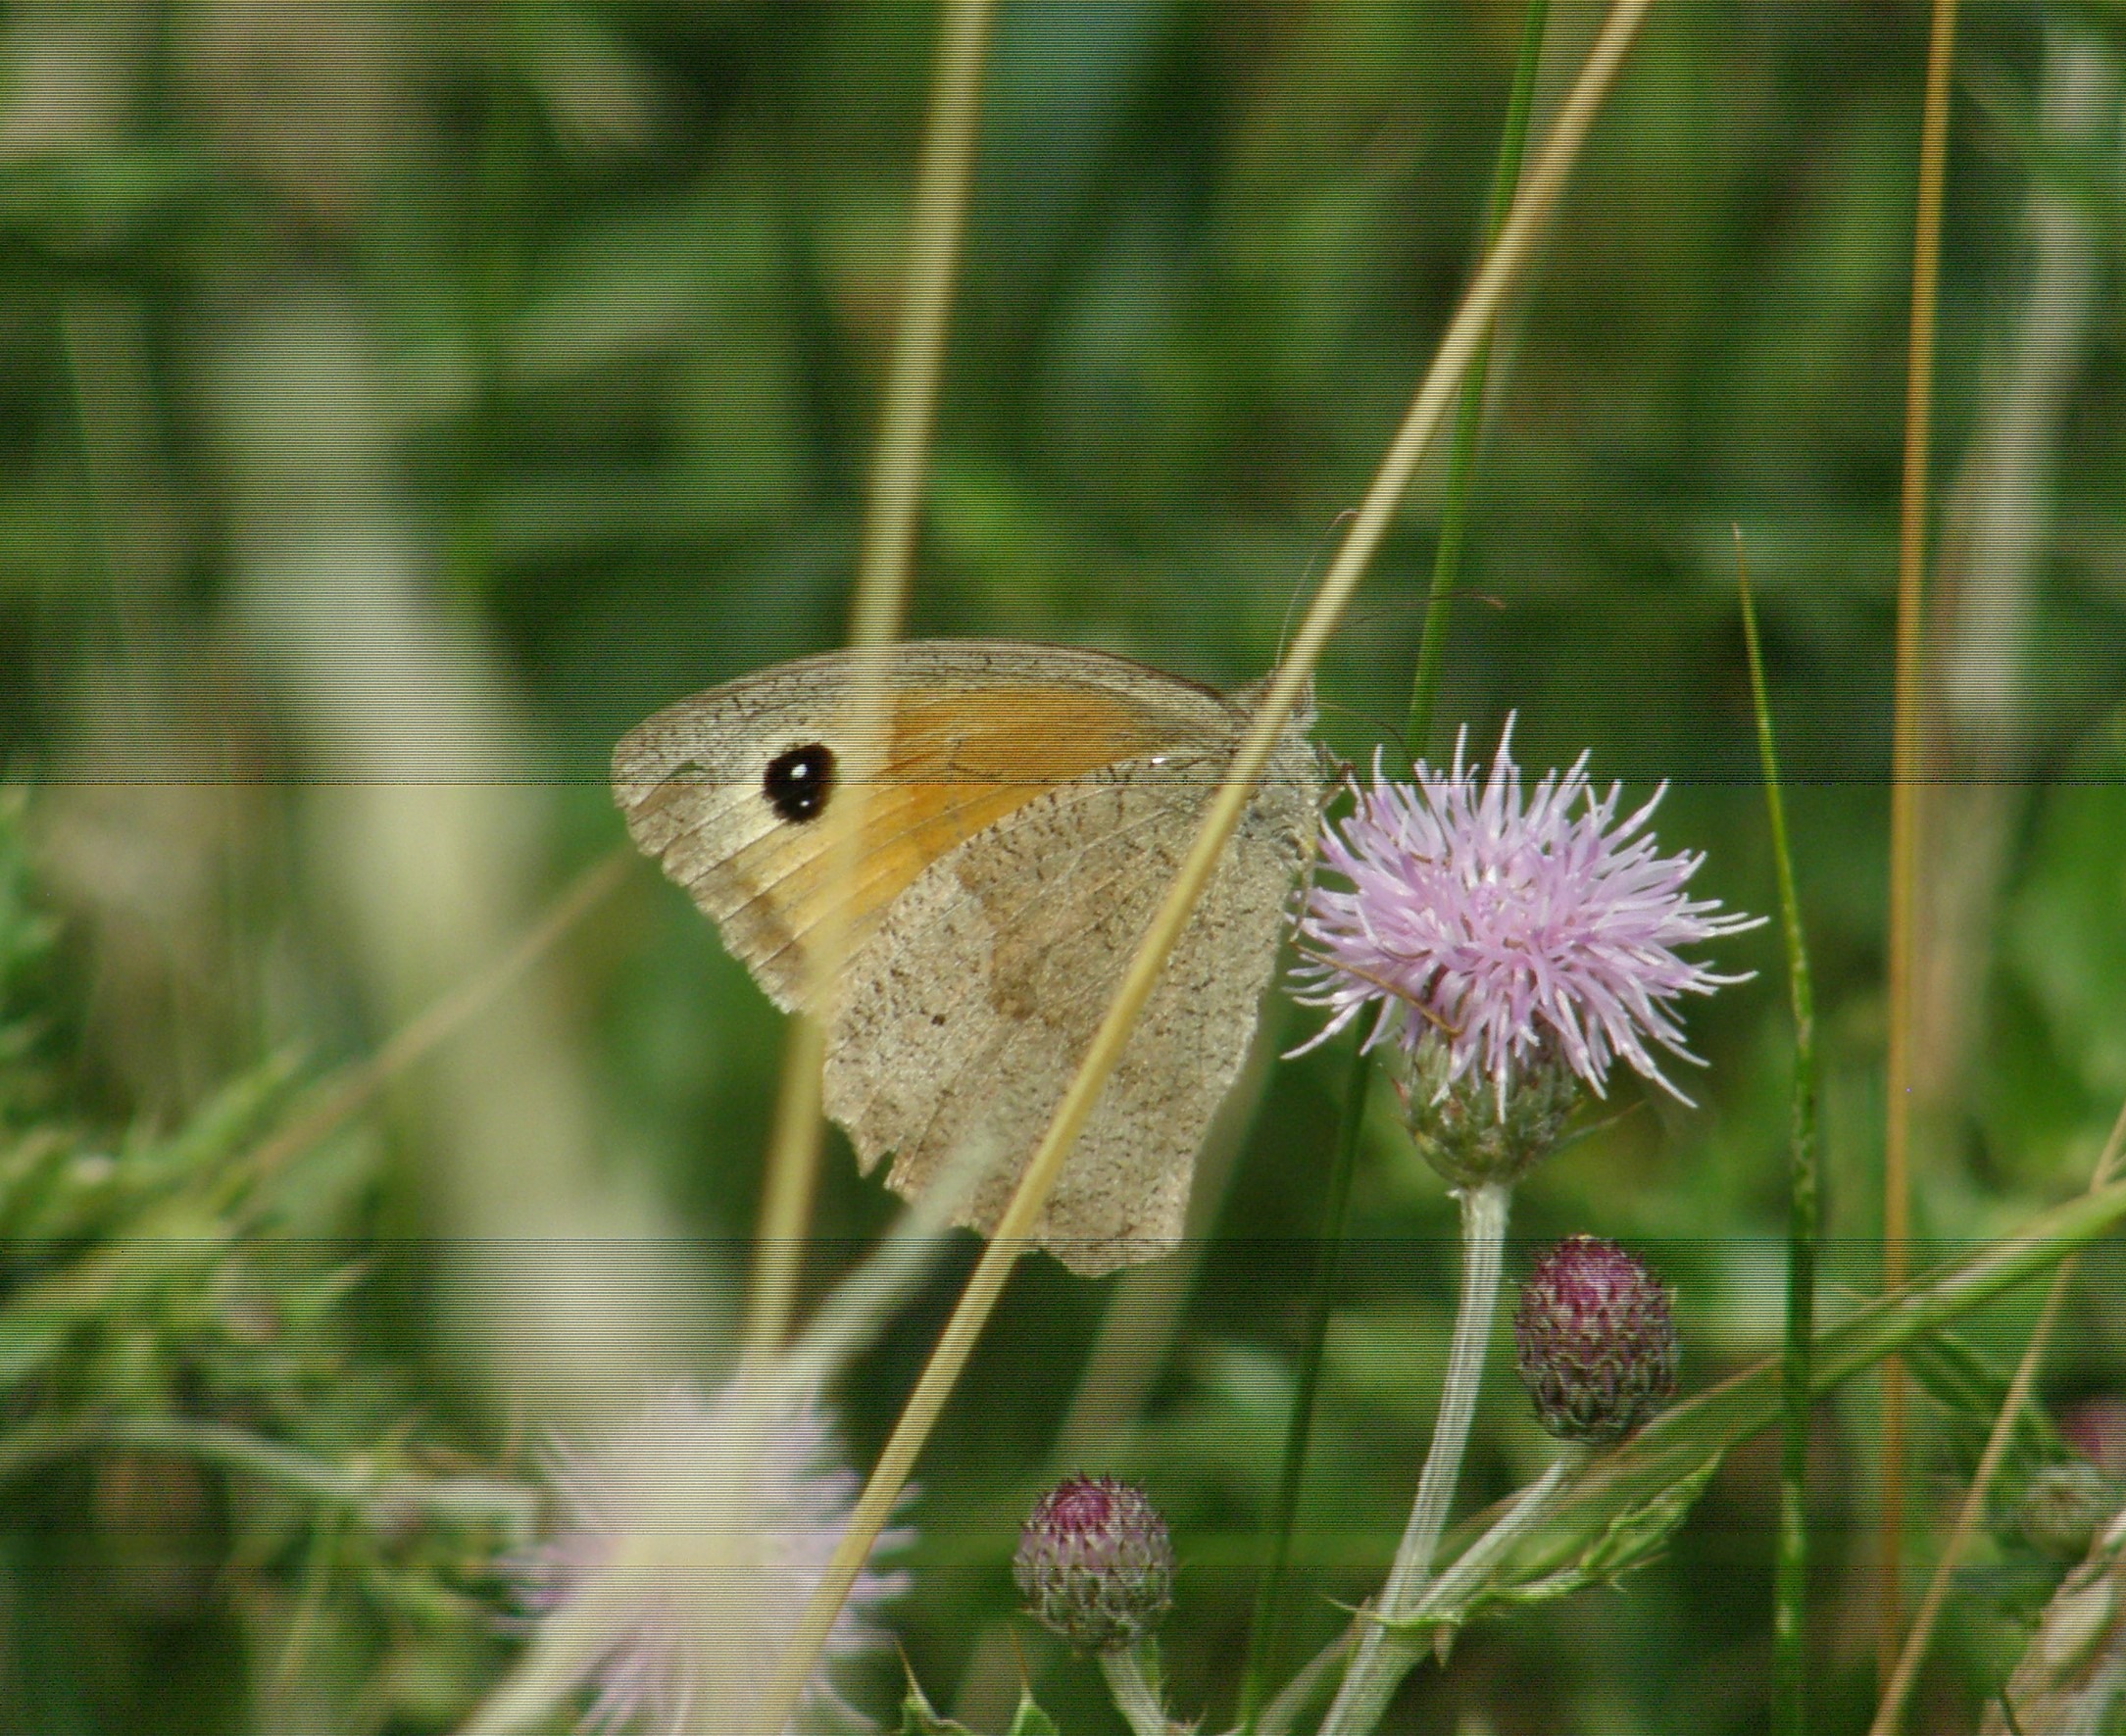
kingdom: Animalia
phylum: Arthropoda
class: Insecta
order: Lepidoptera
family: Nymphalidae
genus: Maniola
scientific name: Maniola jurtina
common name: Græsrandøje
